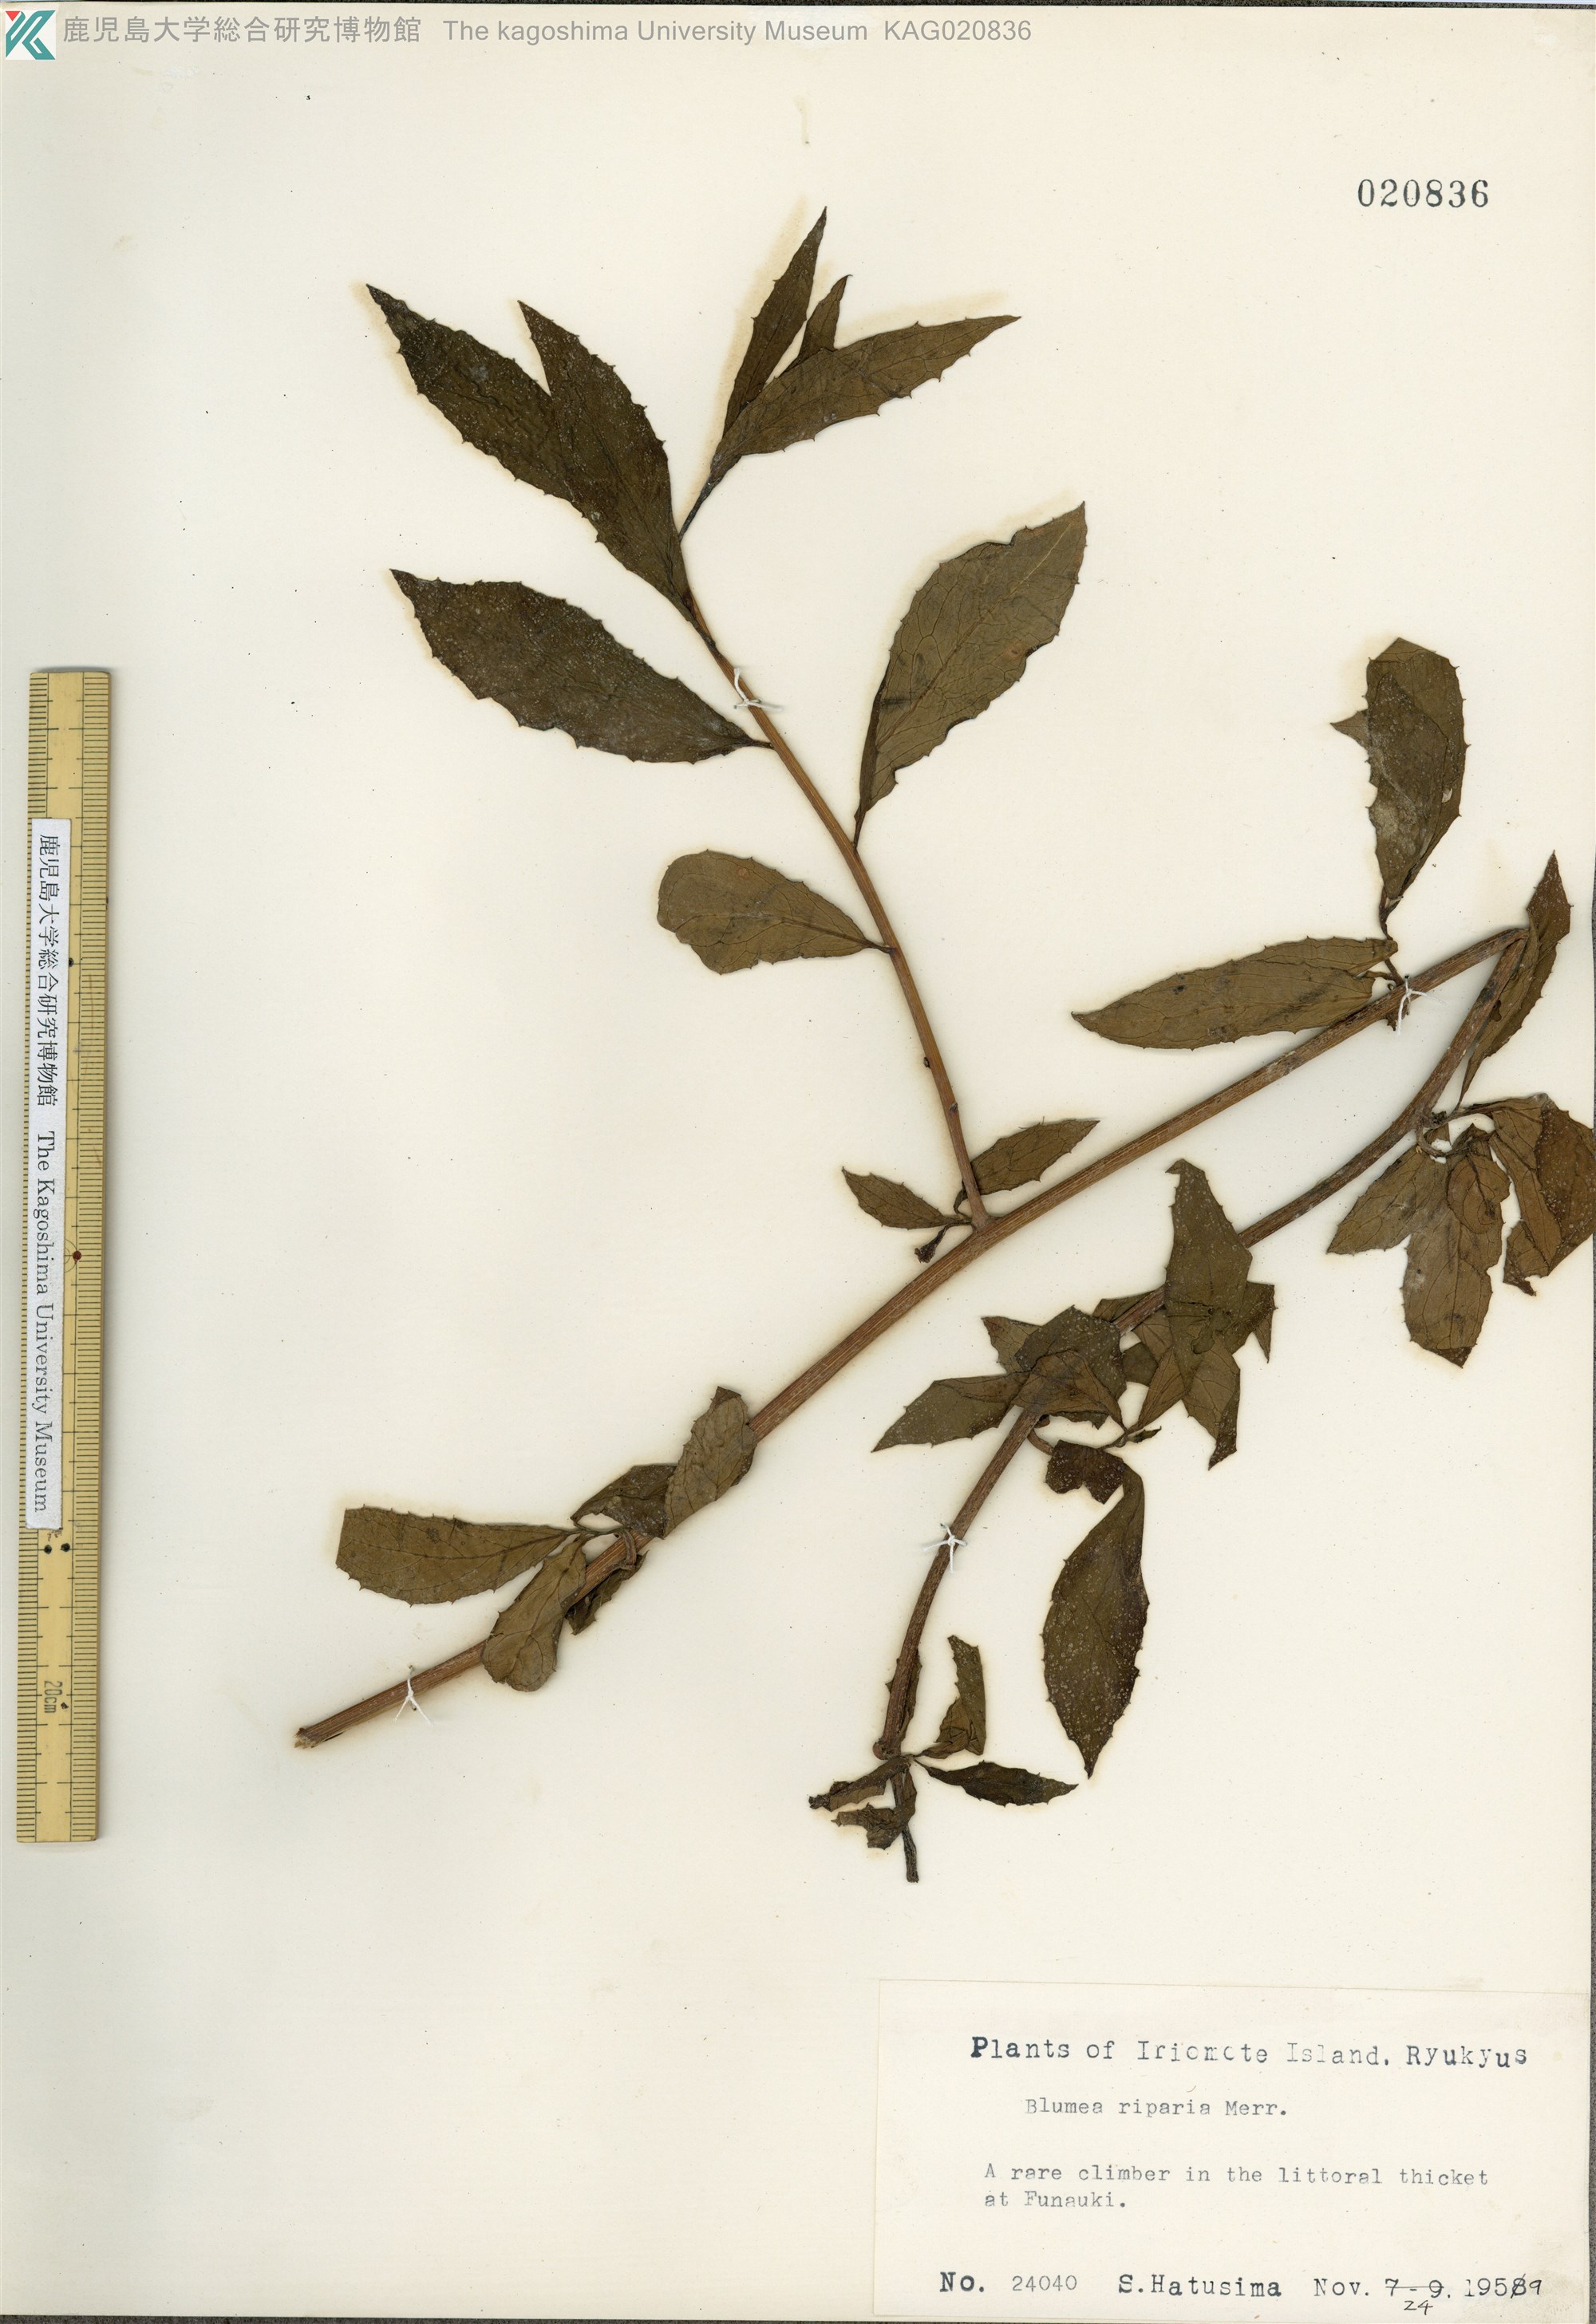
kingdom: Plantae
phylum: Tracheophyta
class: Magnoliopsida
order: Asterales
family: Asteraceae
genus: Blumea
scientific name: Blumea megacephala
